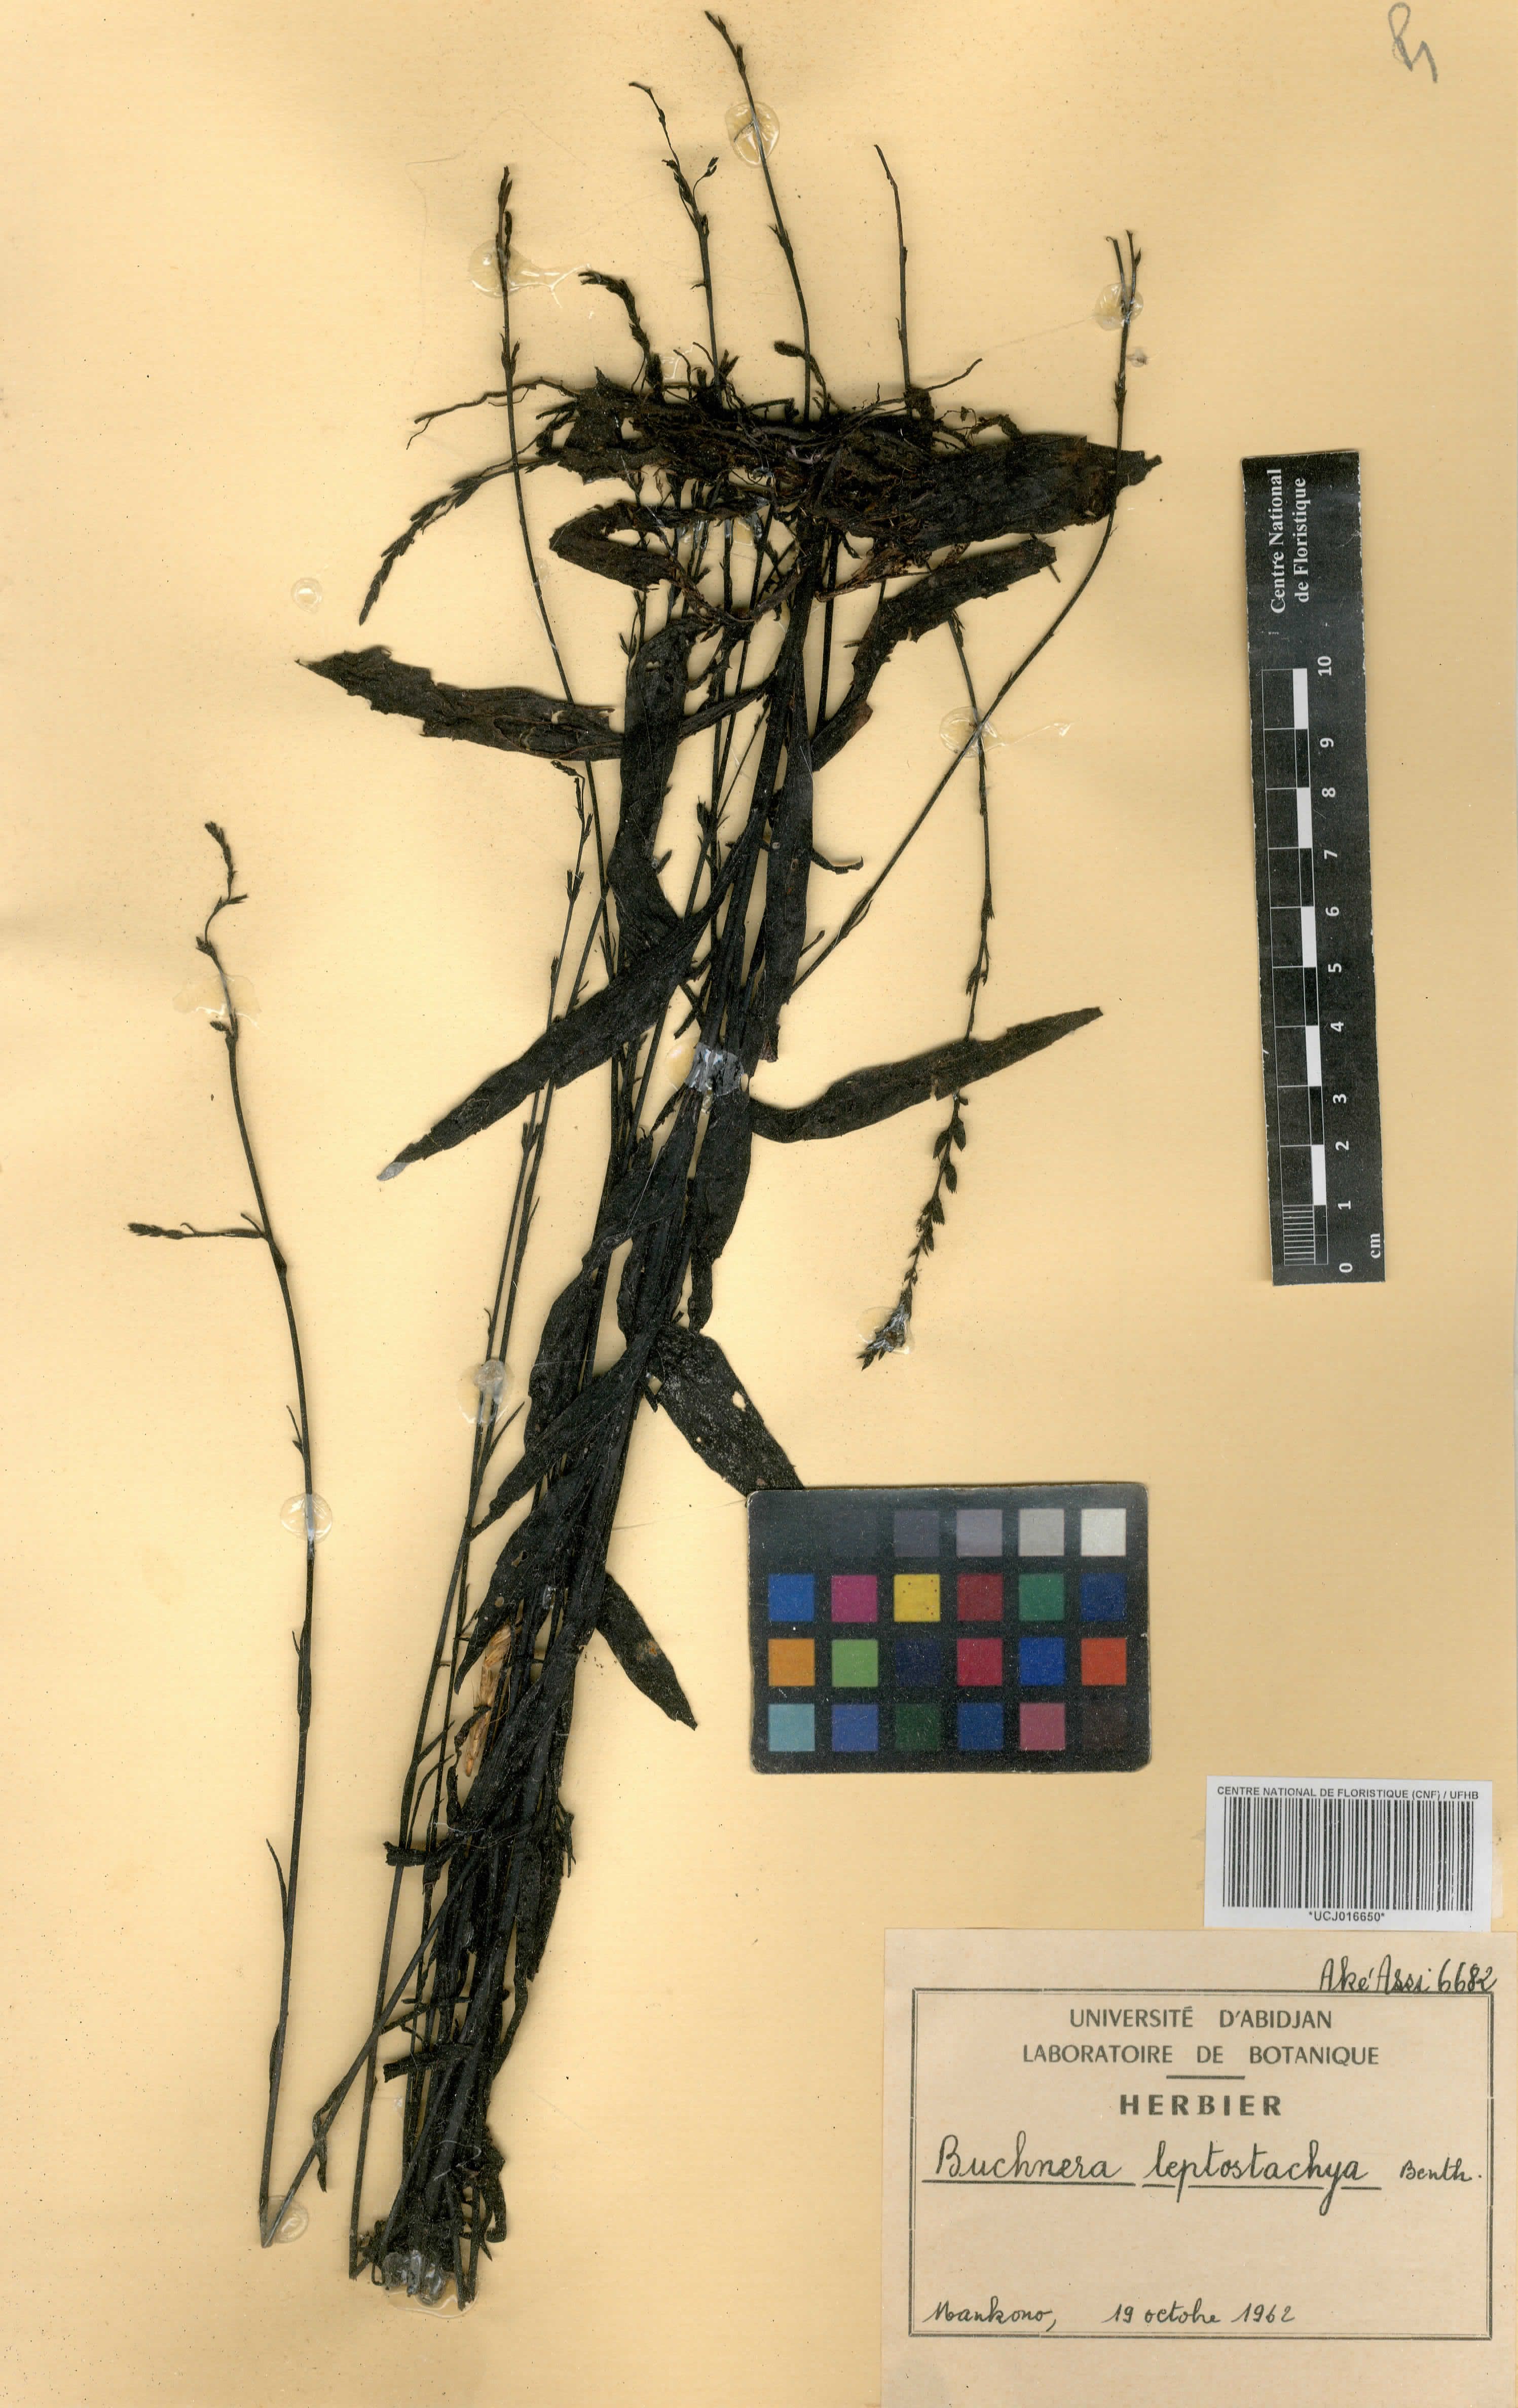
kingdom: Plantae
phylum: Tracheophyta
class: Magnoliopsida
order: Lamiales
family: Orobanchaceae
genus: Buchnera
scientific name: Buchnera leptostachya
